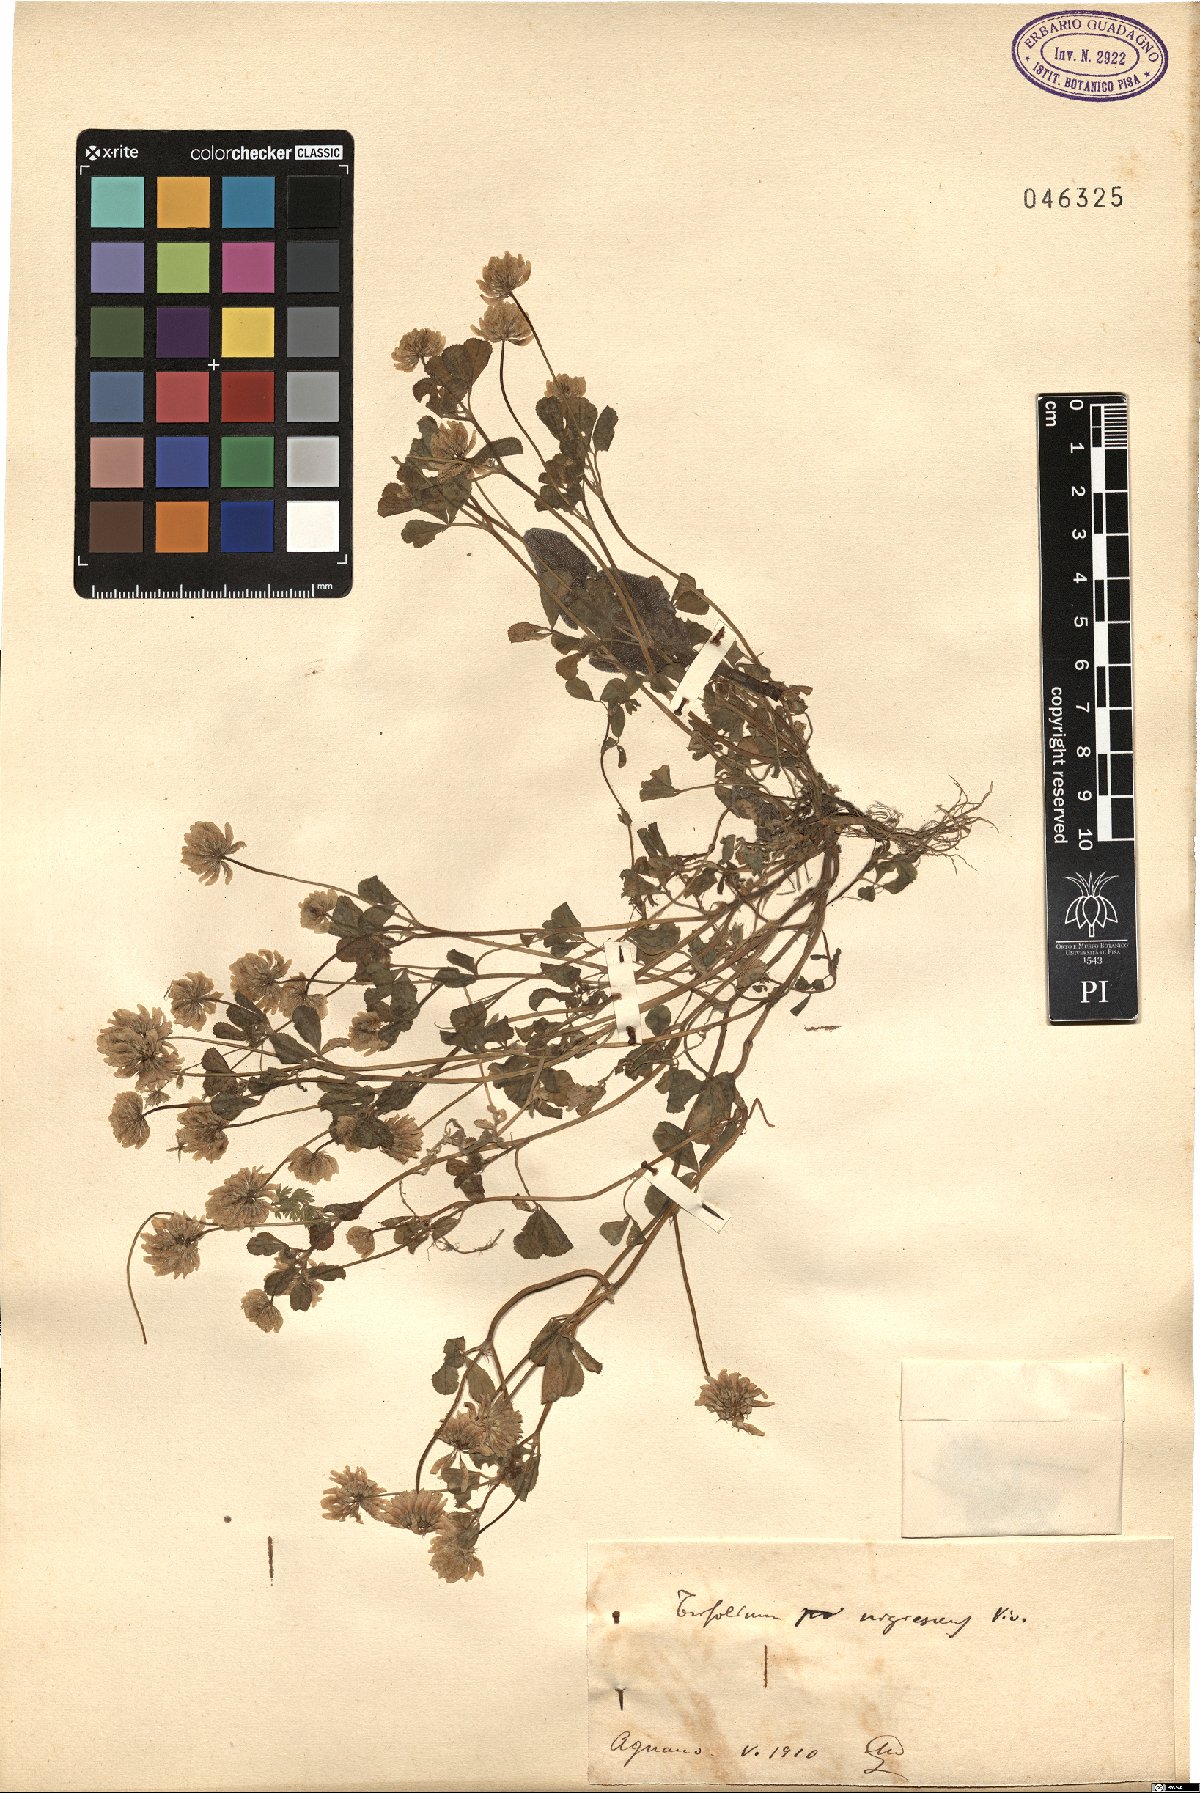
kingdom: Plantae
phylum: Tracheophyta
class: Magnoliopsida
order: Fabales
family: Fabaceae
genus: Trifolium
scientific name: Trifolium nigrescens
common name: Small white clover
